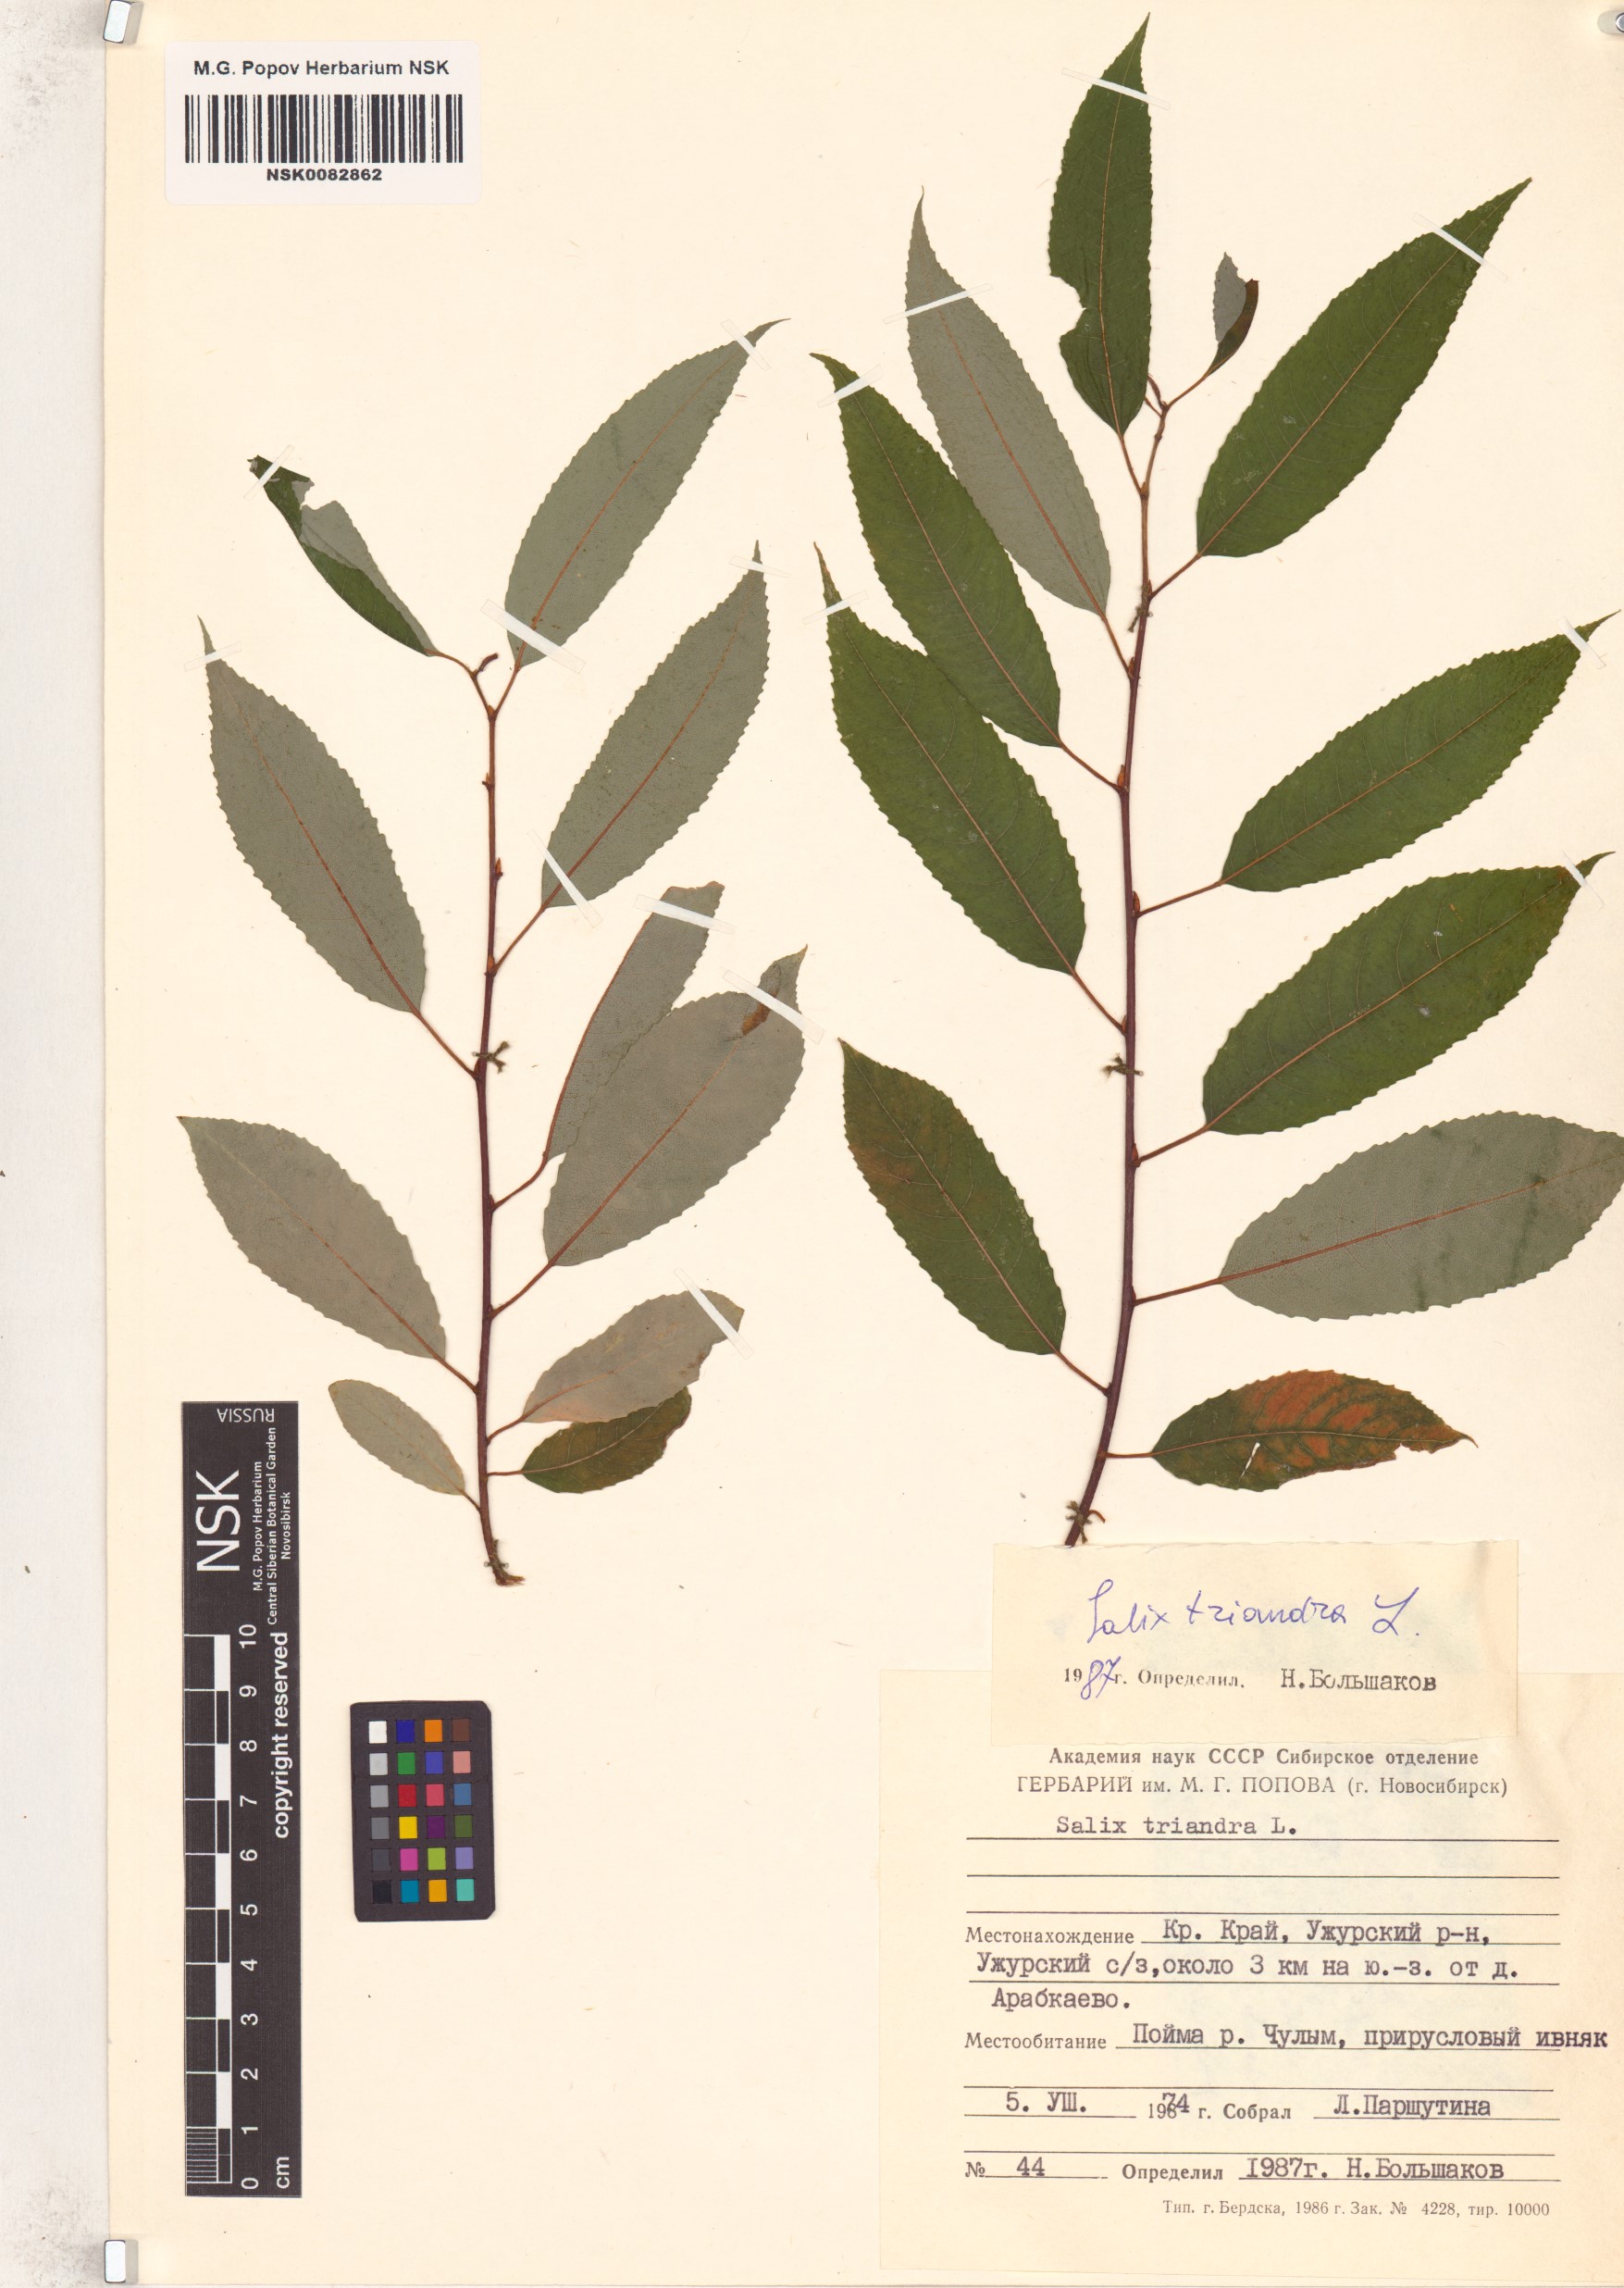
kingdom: Plantae
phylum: Tracheophyta
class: Magnoliopsida
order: Malpighiales
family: Salicaceae
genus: Salix
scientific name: Salix triandra
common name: Almond willow
